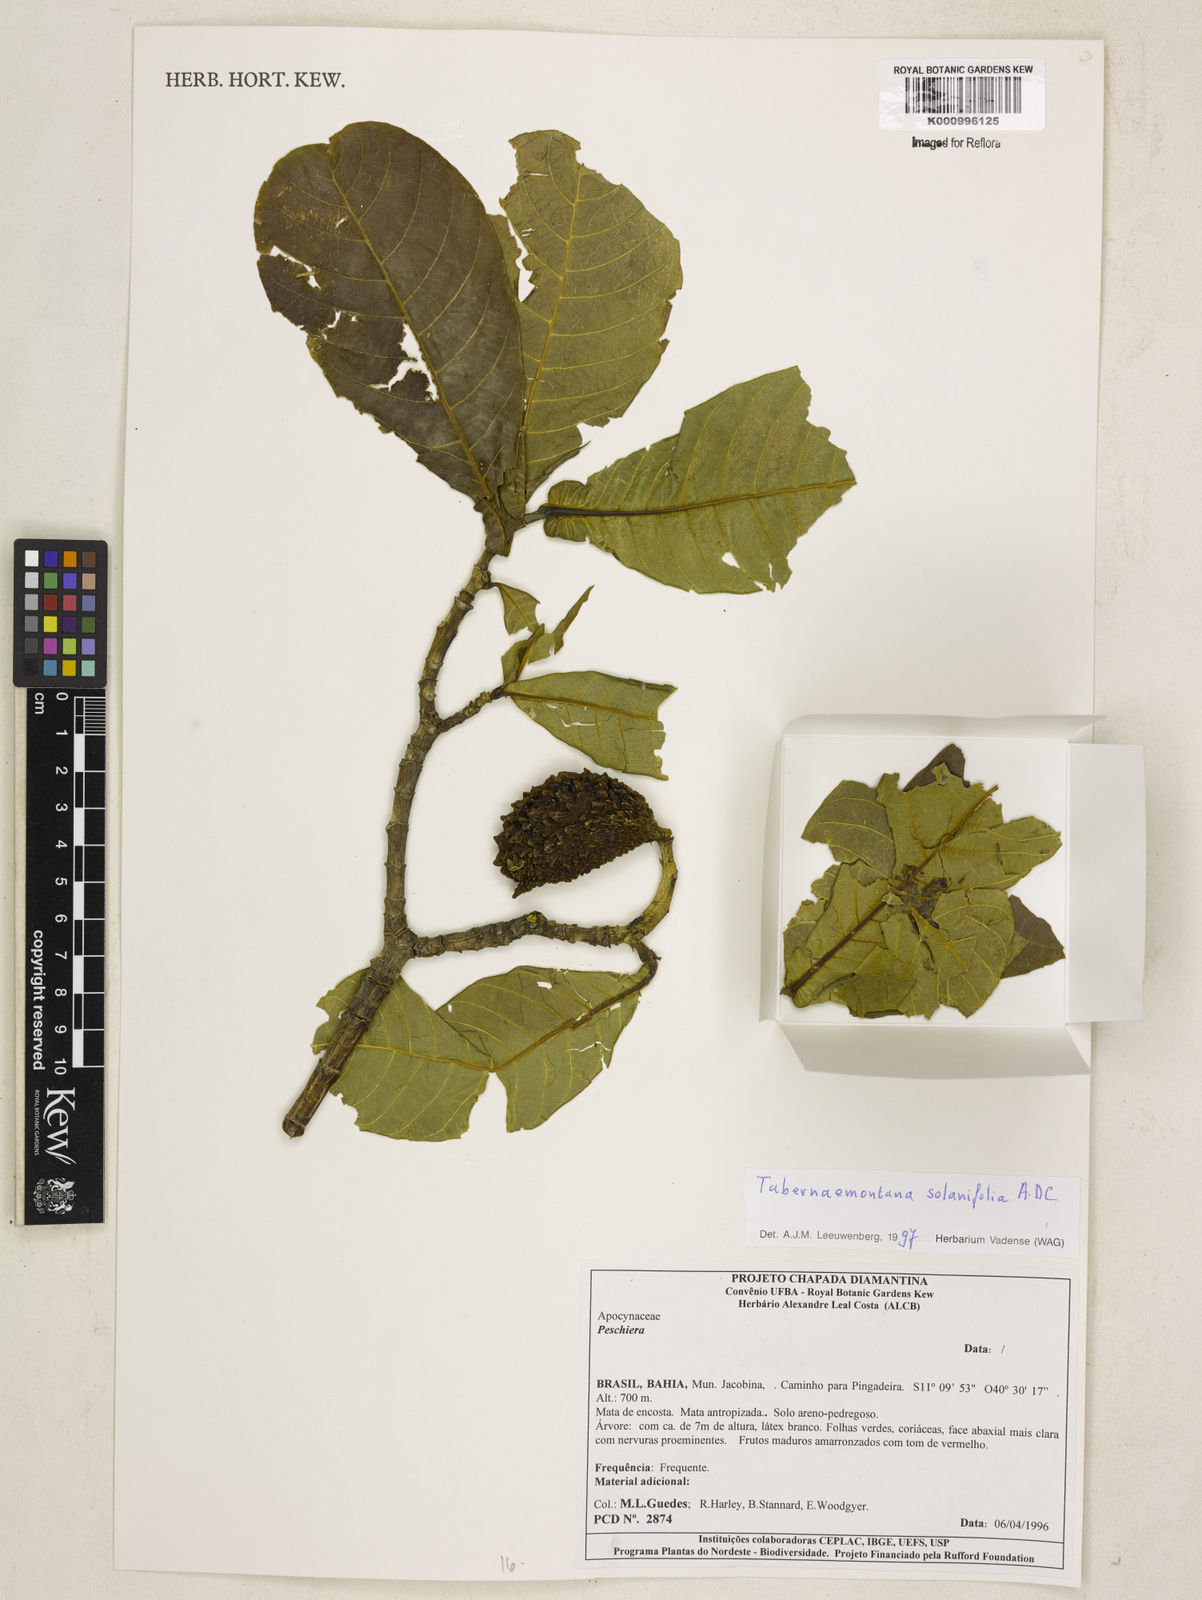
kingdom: Plantae
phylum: Tracheophyta
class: Magnoliopsida
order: Gentianales
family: Apocynaceae
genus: Tabernaemontana
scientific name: Tabernaemontana solanifolia
